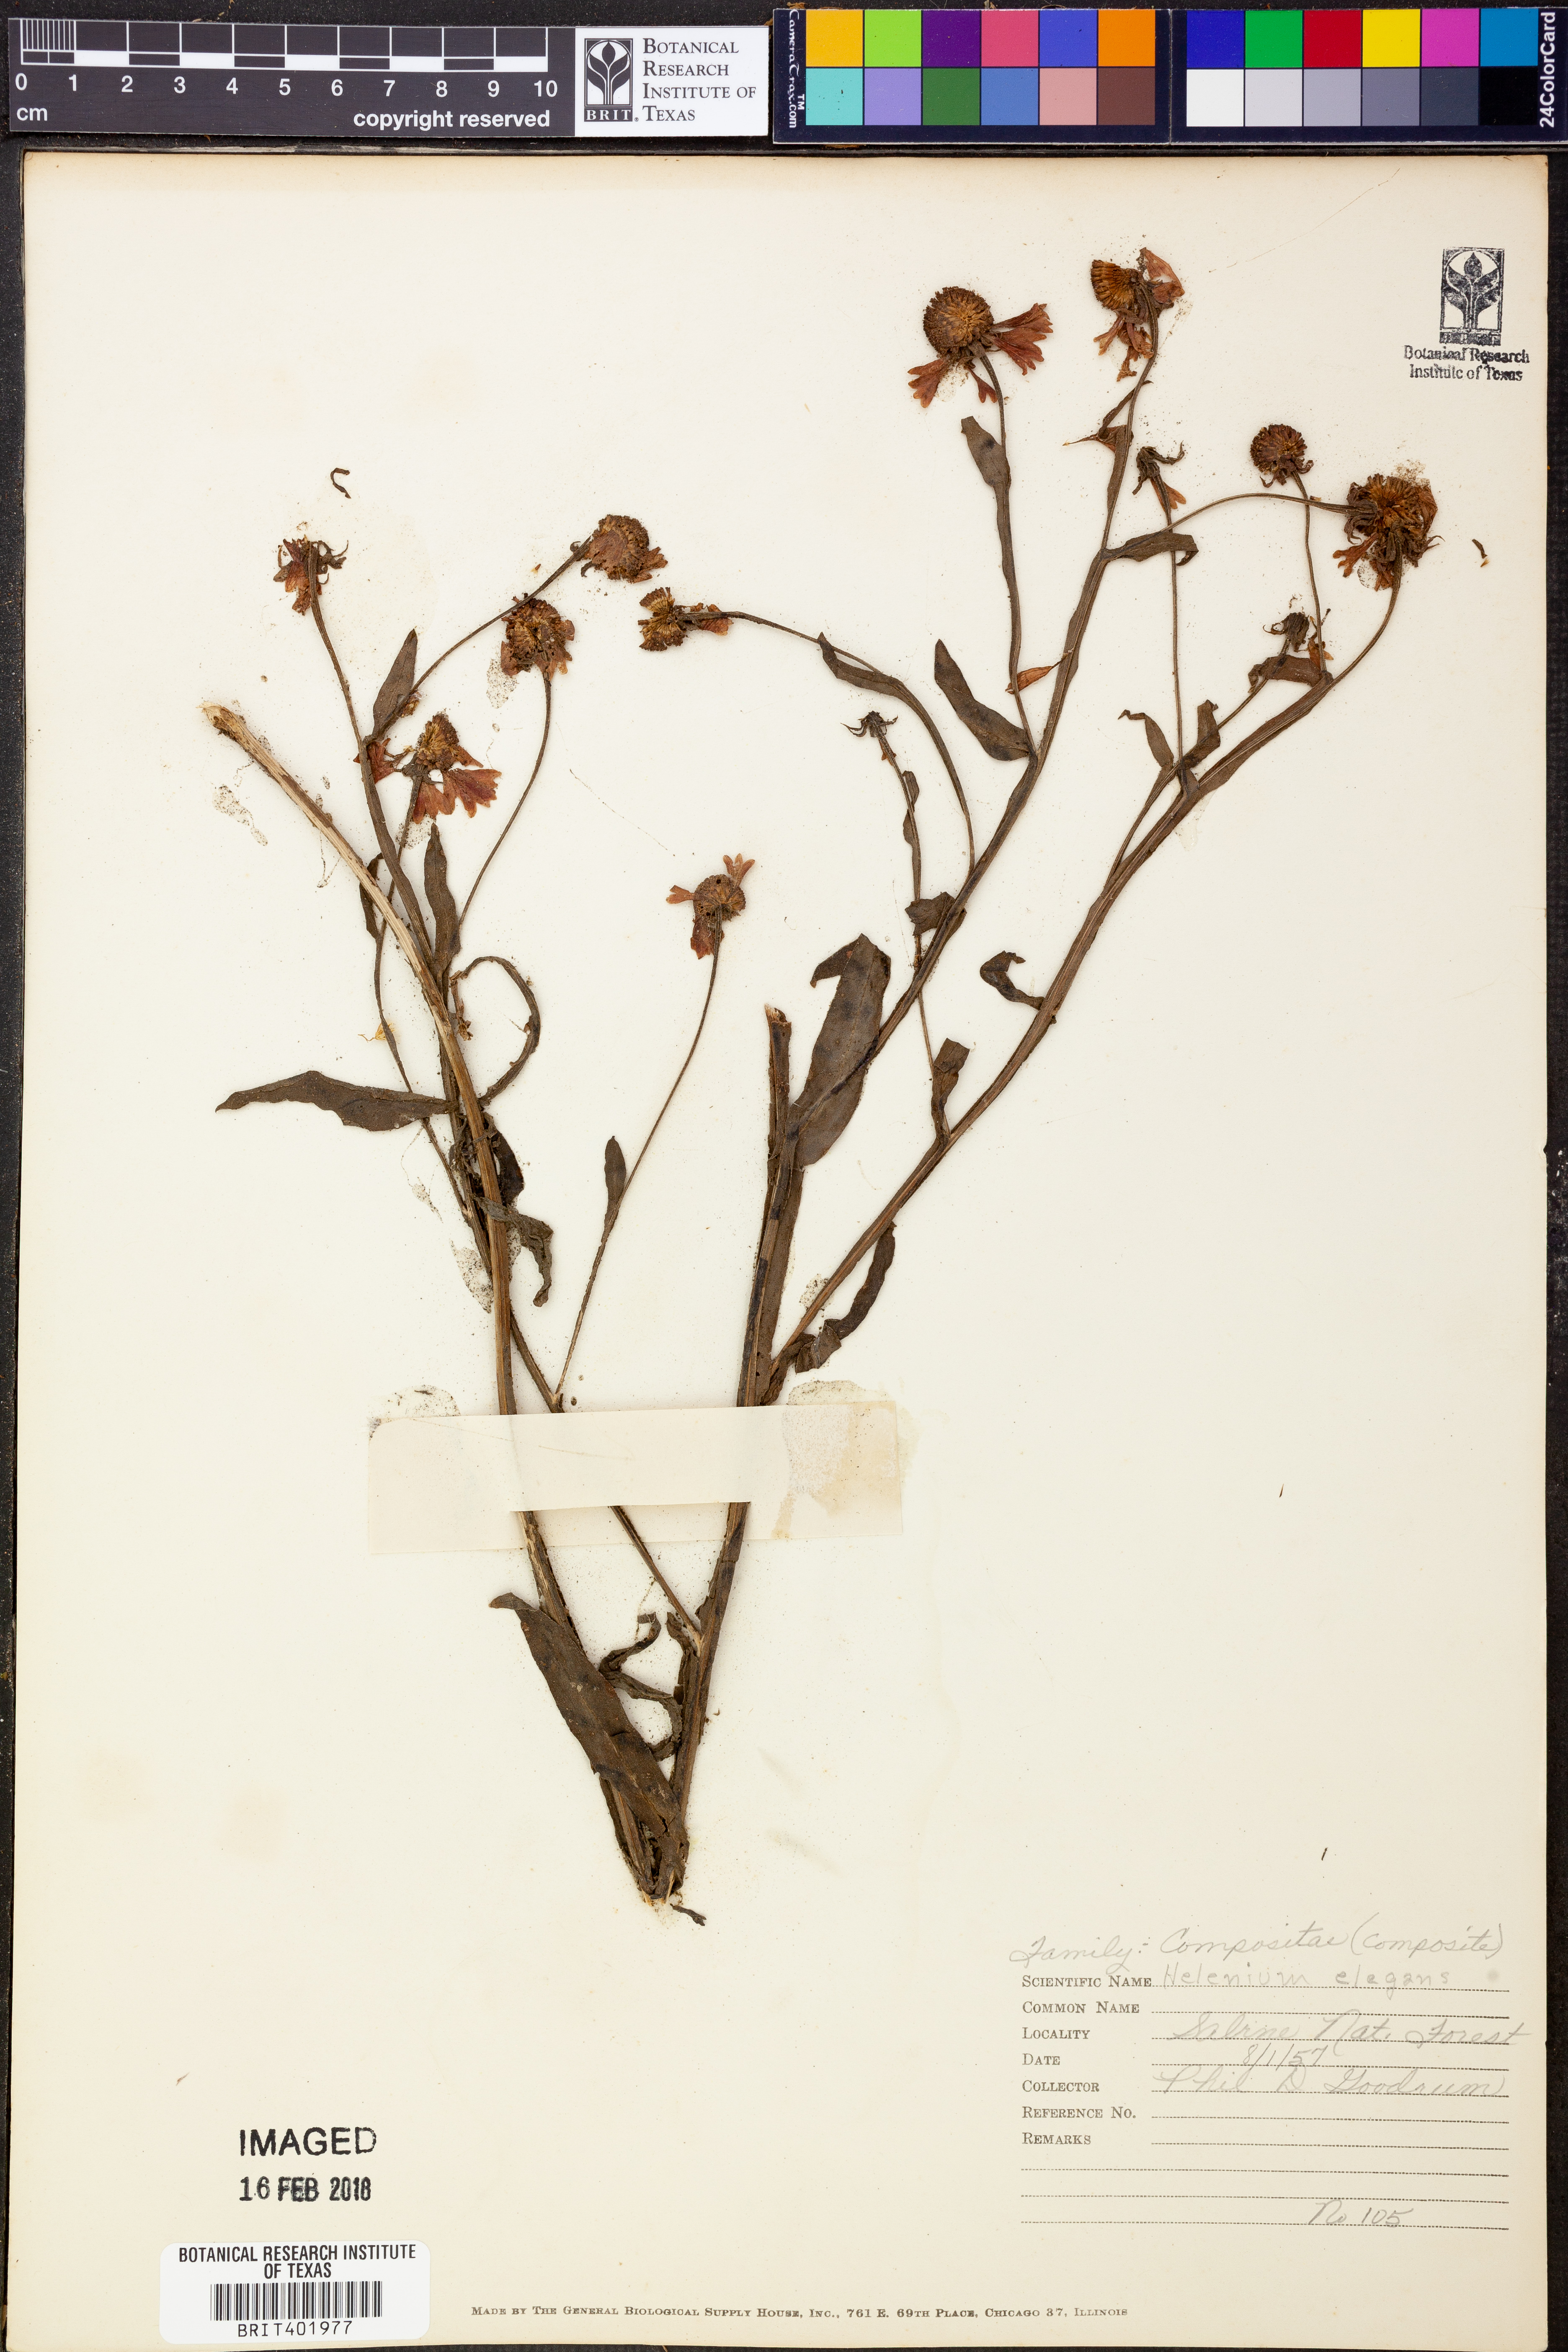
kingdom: Plantae
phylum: Tracheophyta
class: Magnoliopsida
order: Asterales
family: Asteraceae
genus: Helenium
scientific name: Helenium elegans
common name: Pretty sneezeweed
